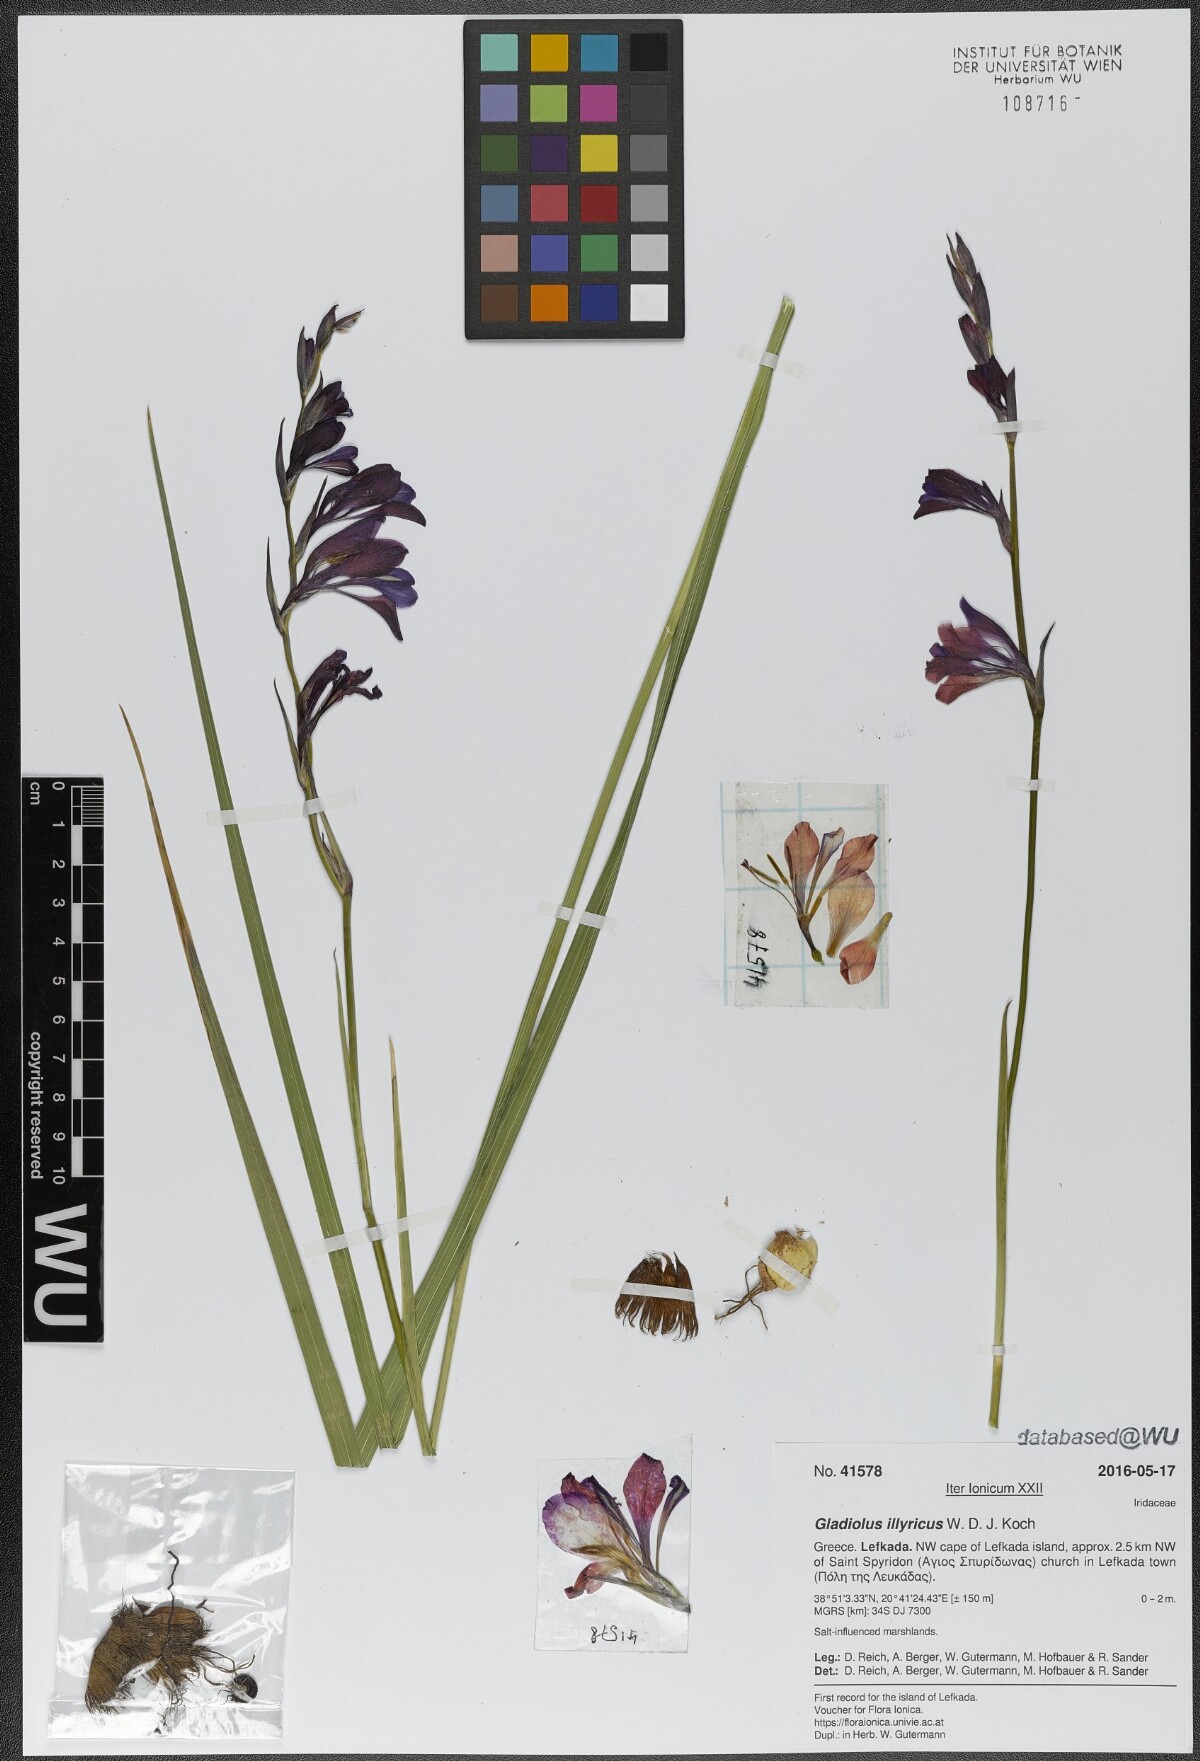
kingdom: Plantae
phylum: Tracheophyta
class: Liliopsida
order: Asparagales
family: Iridaceae
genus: Gladiolus
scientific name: Gladiolus illyricus
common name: Wild gladiolus
